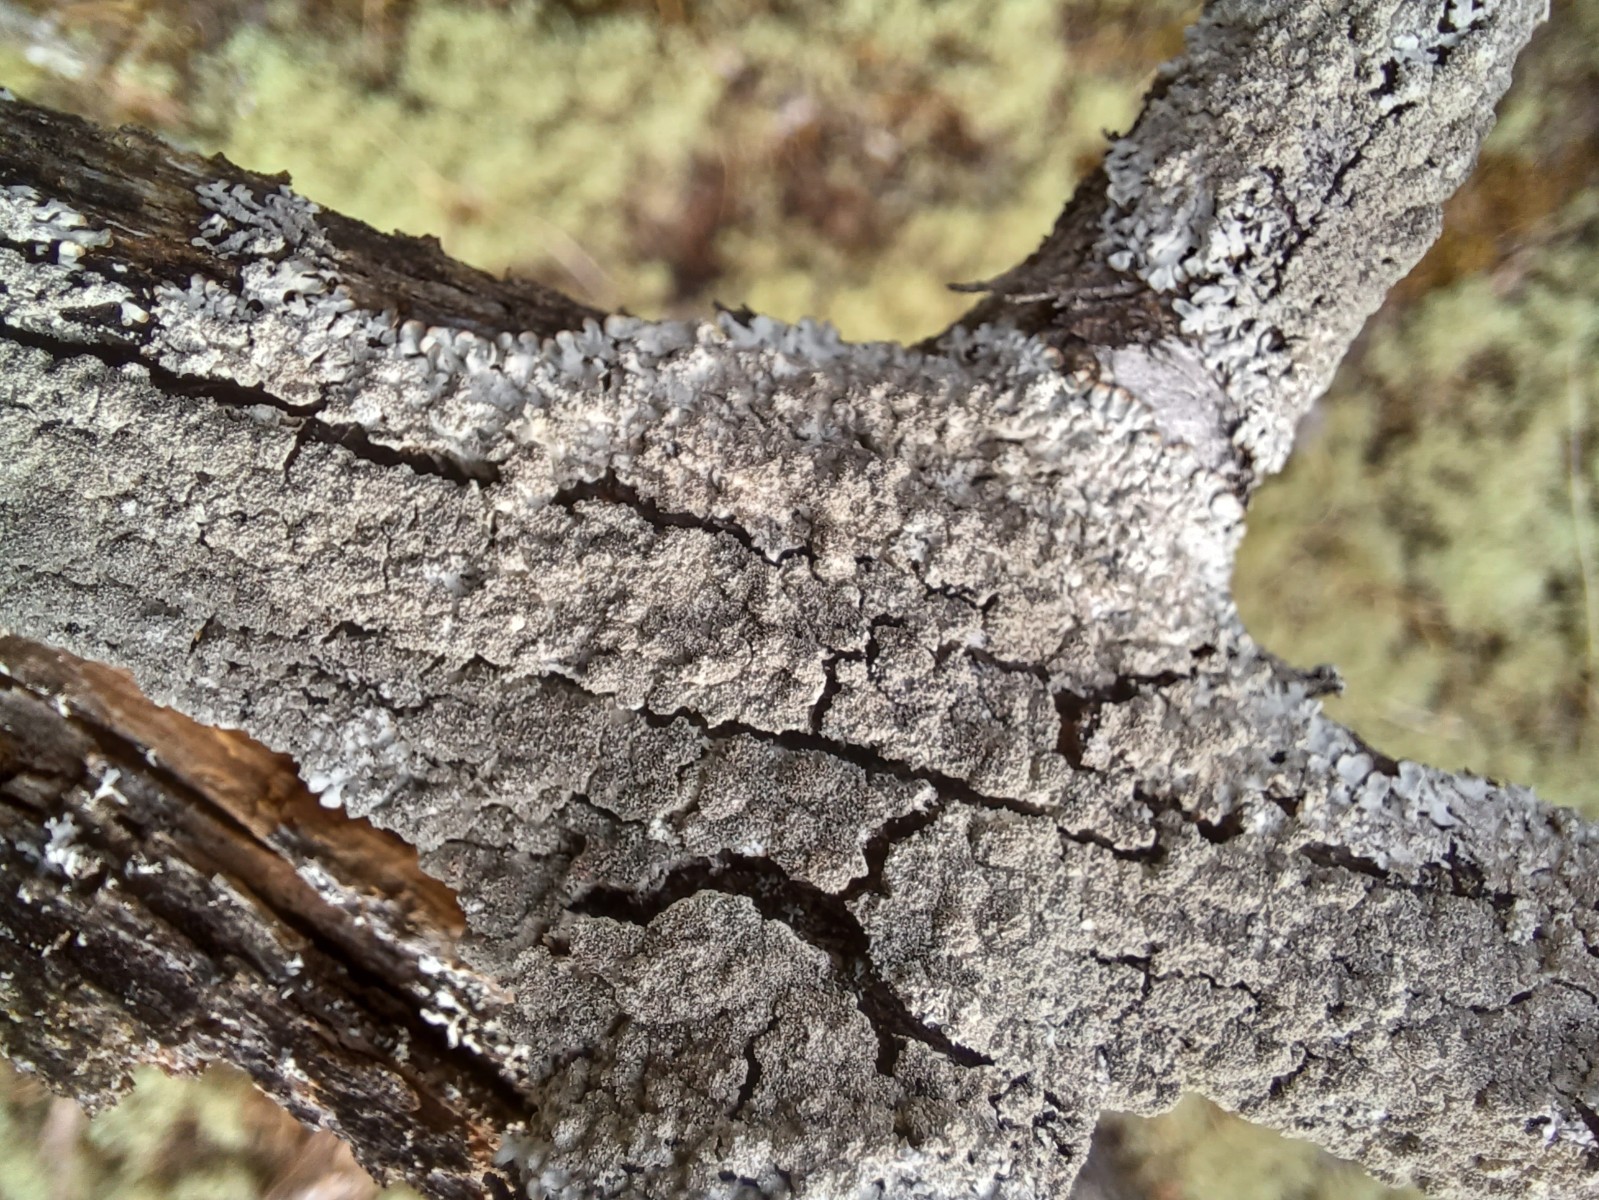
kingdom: Fungi
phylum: Ascomycota
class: Lecanoromycetes
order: Lecanorales
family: Parmeliaceae
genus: Imshaugia
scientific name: Imshaugia aleurites
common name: kliddet stolpelav
